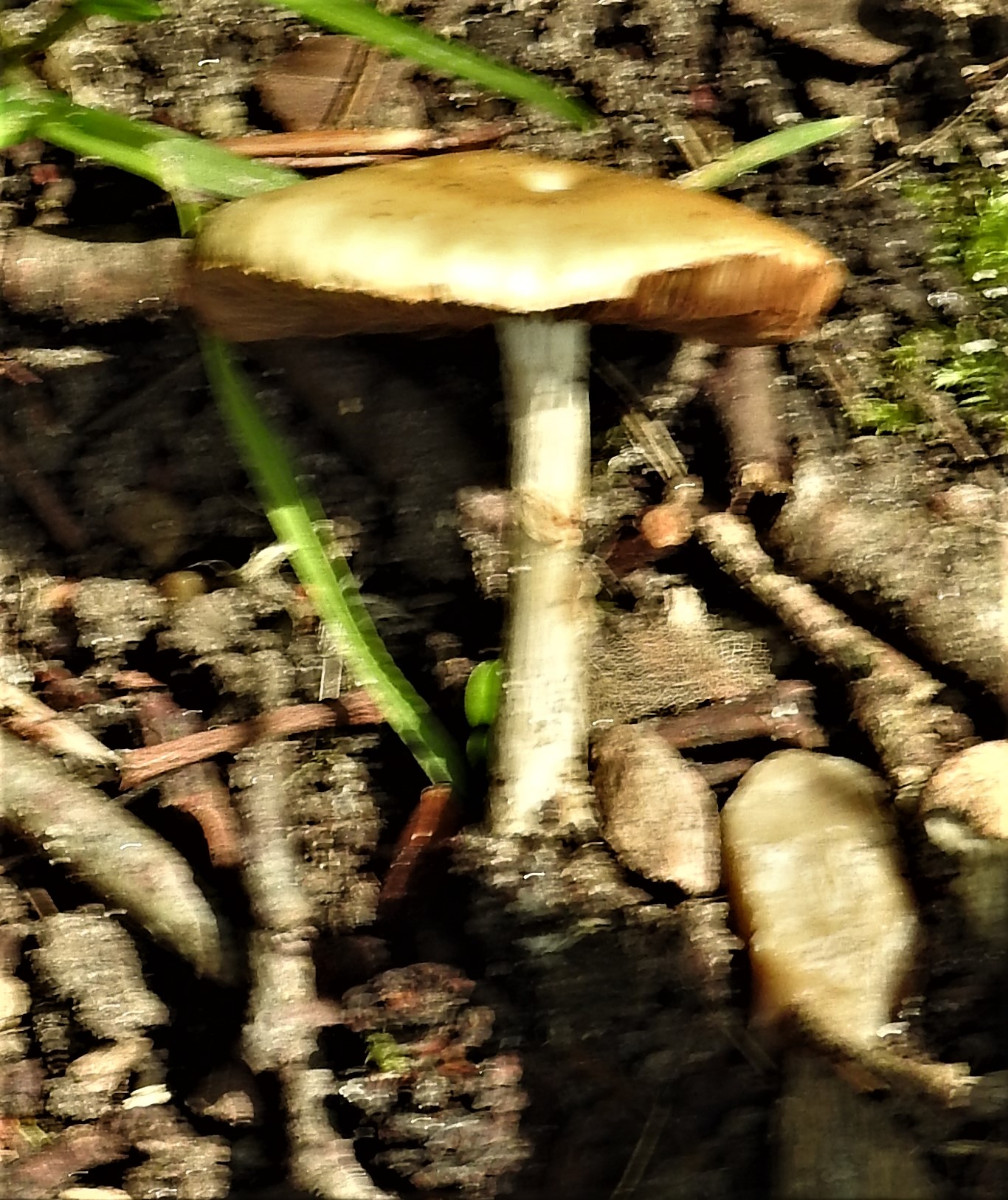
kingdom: Fungi
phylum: Basidiomycota
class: Agaricomycetes
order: Agaricales
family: Strophariaceae
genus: Agrocybe
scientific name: Agrocybe
